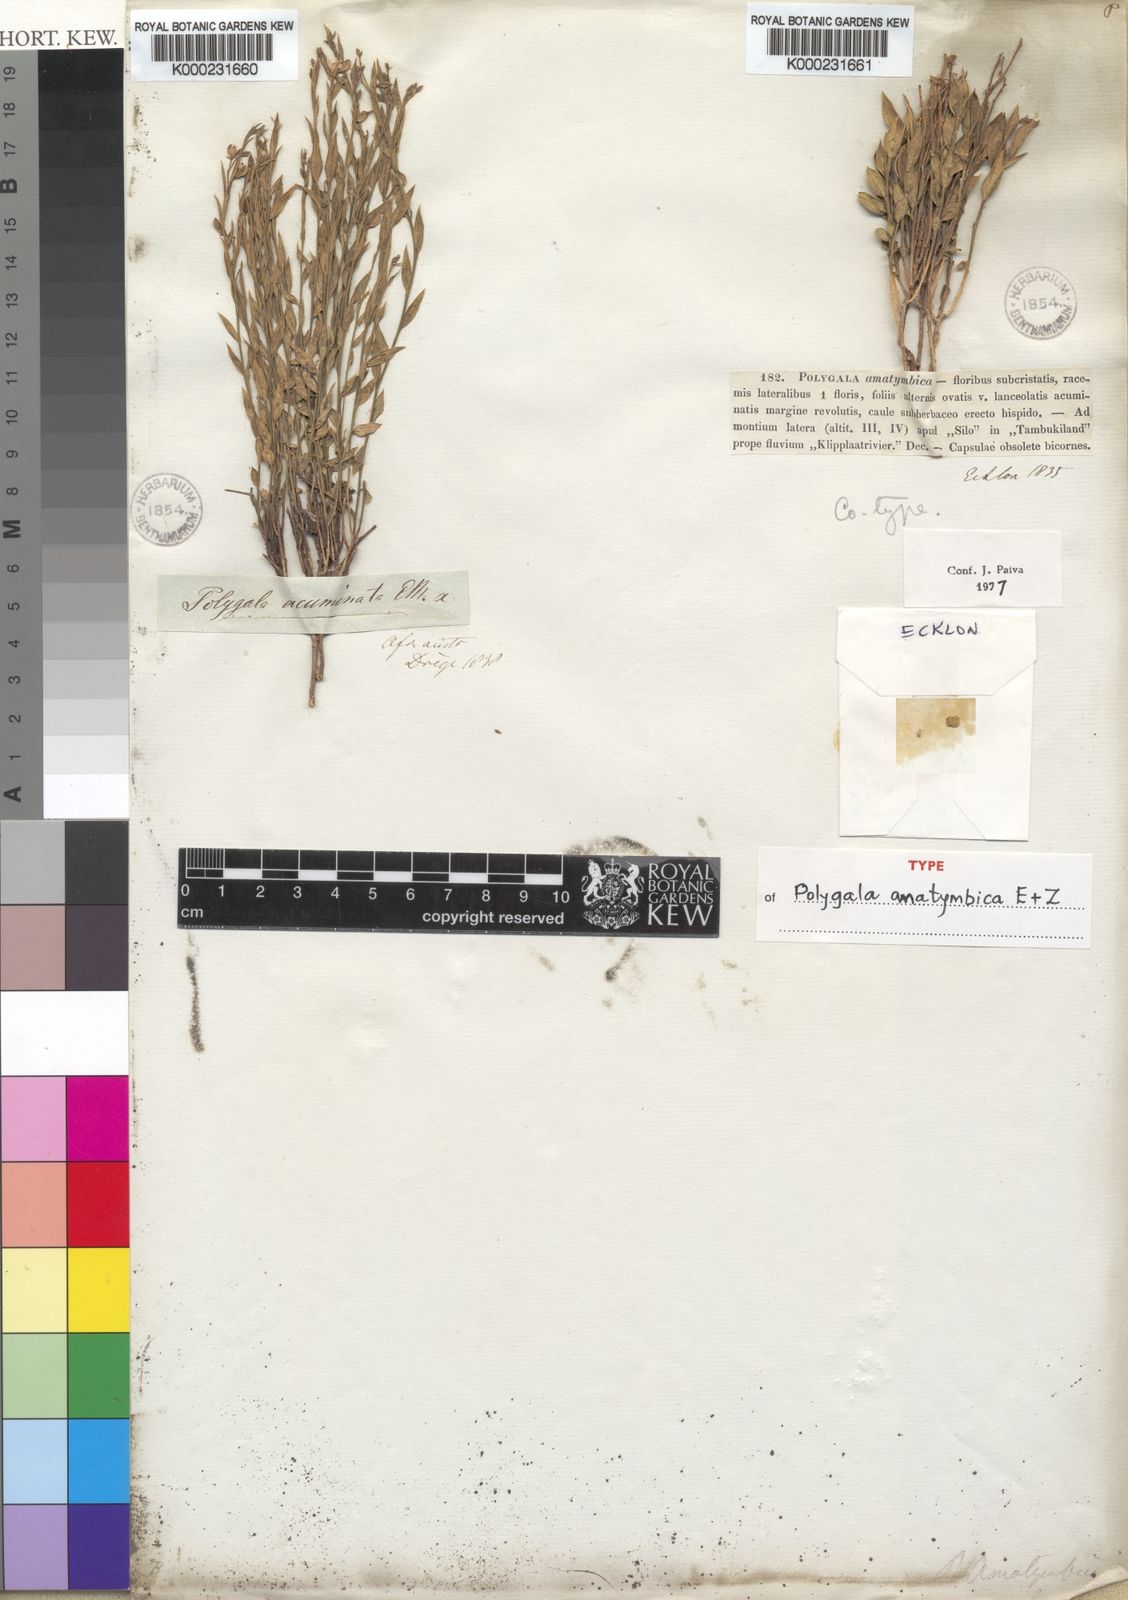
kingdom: Plantae
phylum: Tracheophyta
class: Magnoliopsida
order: Fabales
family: Polygalaceae
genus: Polygala
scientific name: Polygala amatymbica
